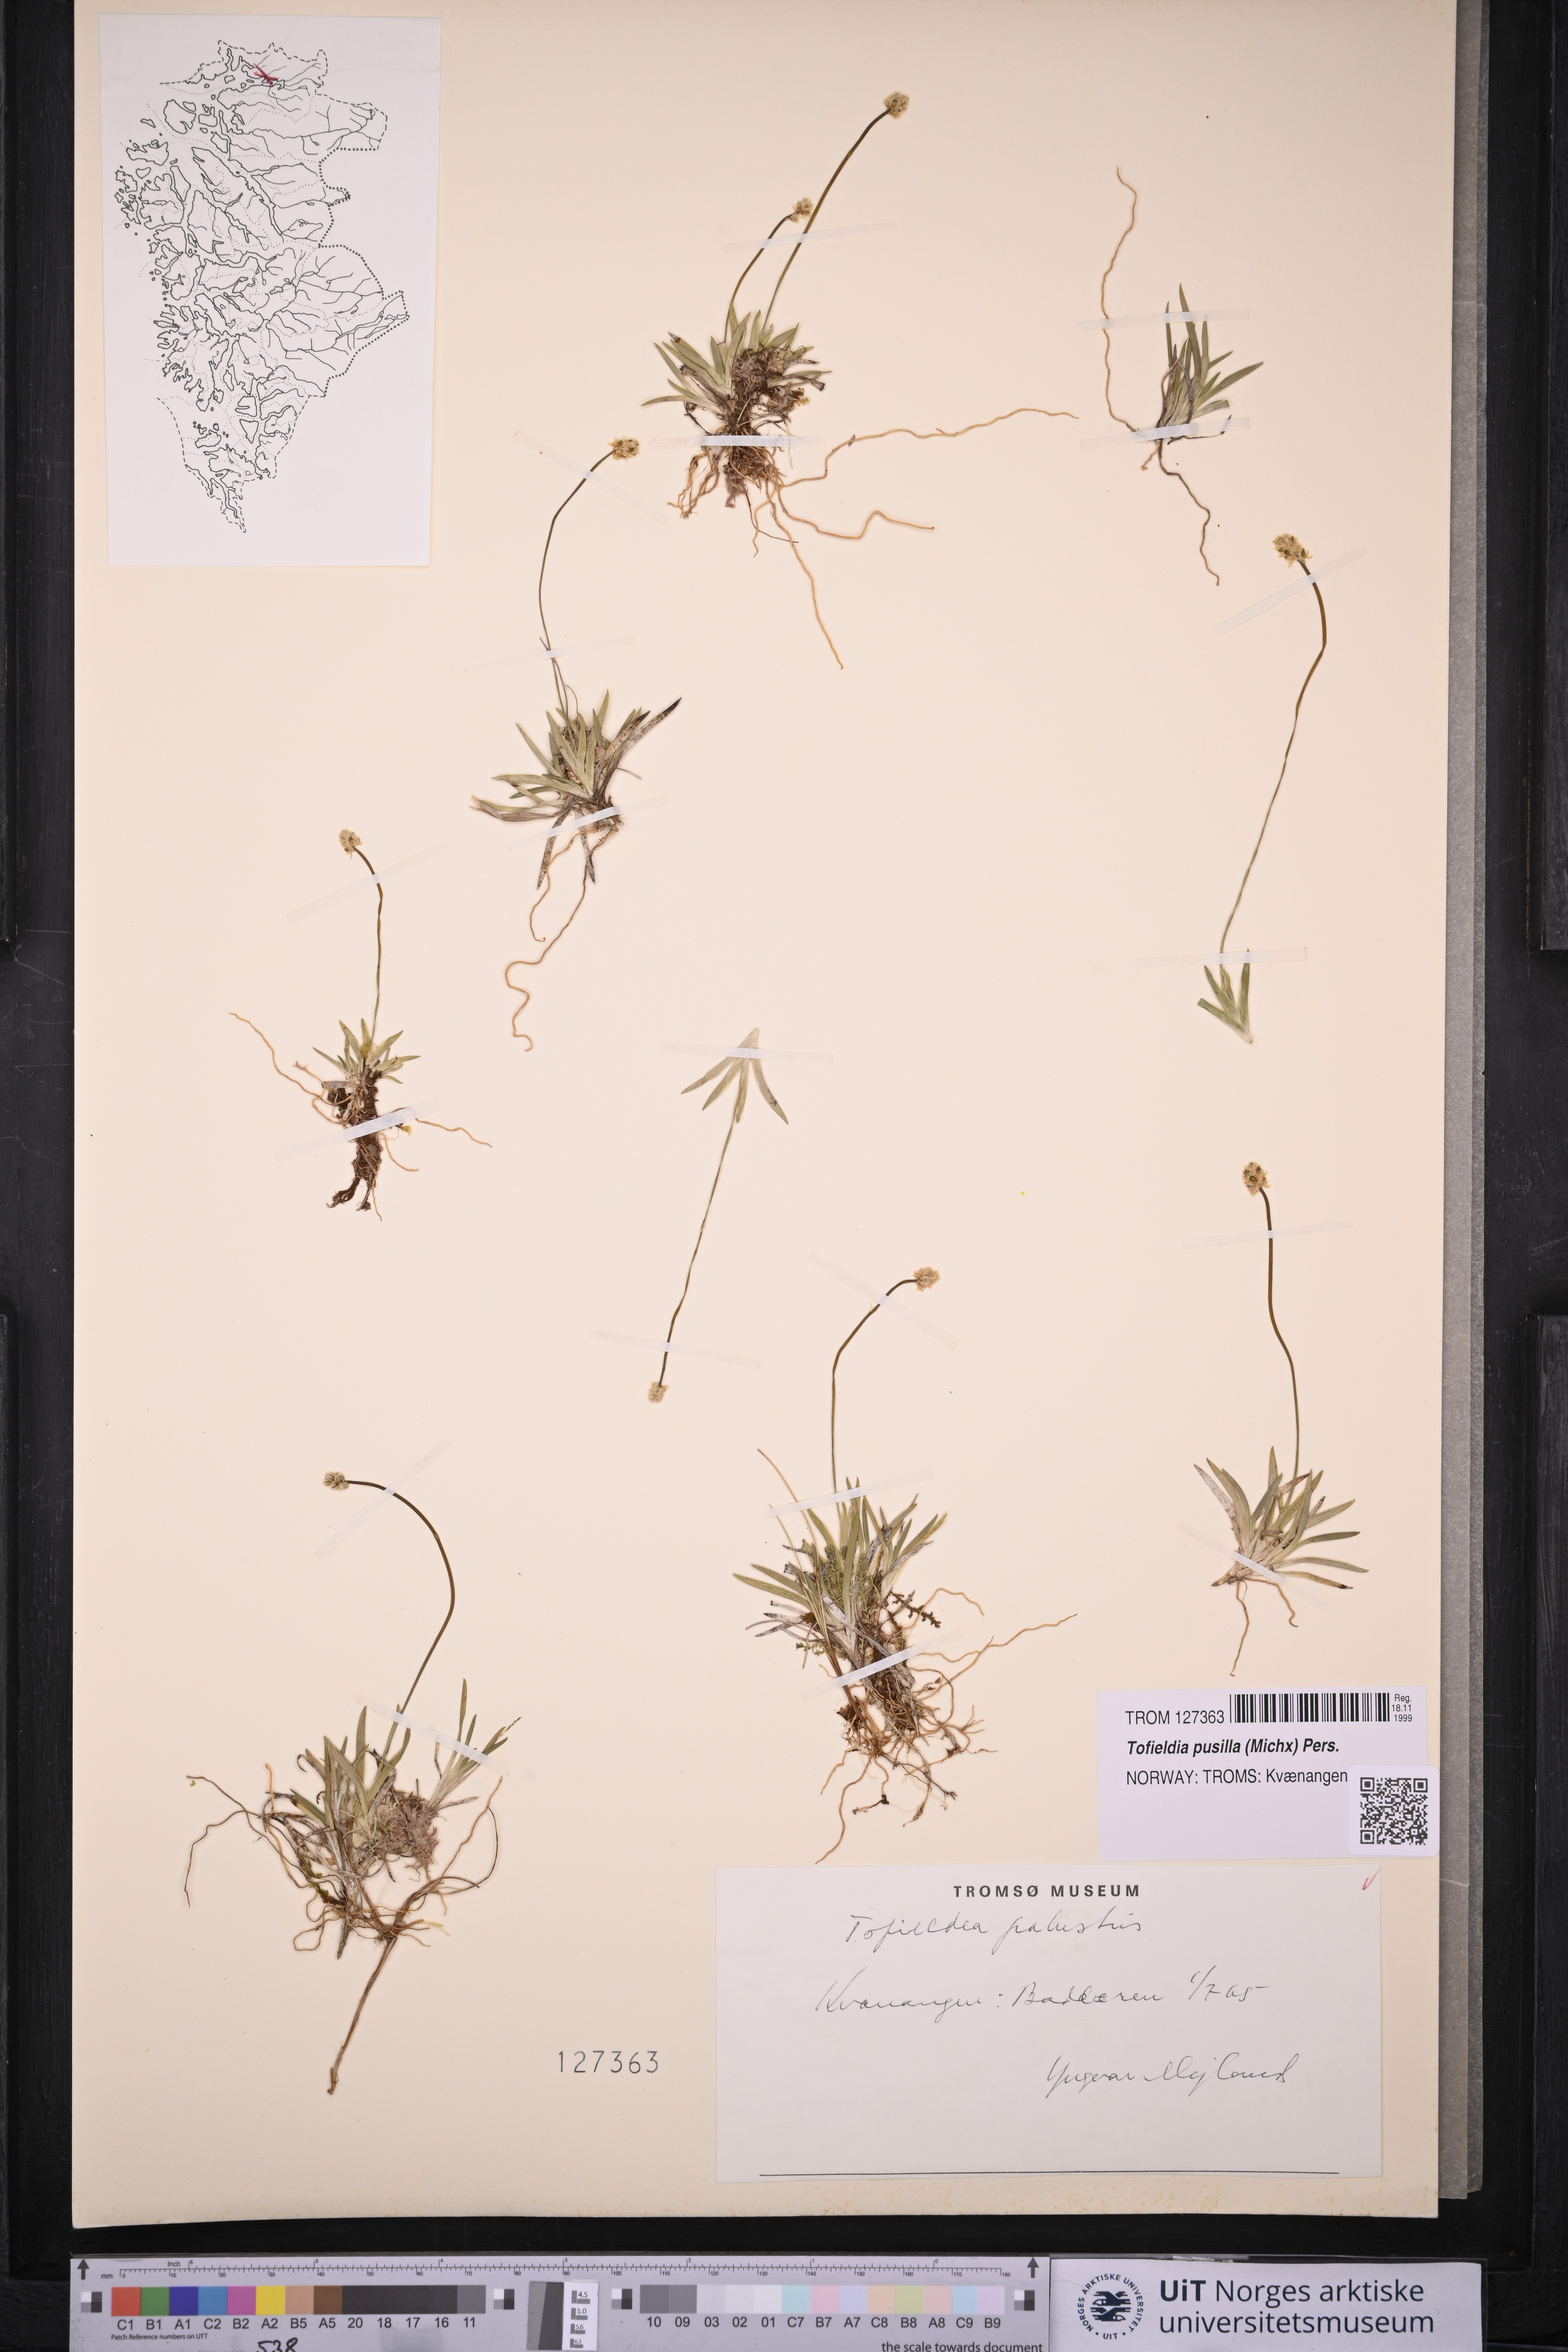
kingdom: Plantae
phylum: Tracheophyta
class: Liliopsida
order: Alismatales
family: Tofieldiaceae
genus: Tofieldia
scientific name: Tofieldia pusilla
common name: Scottish false asphodel
